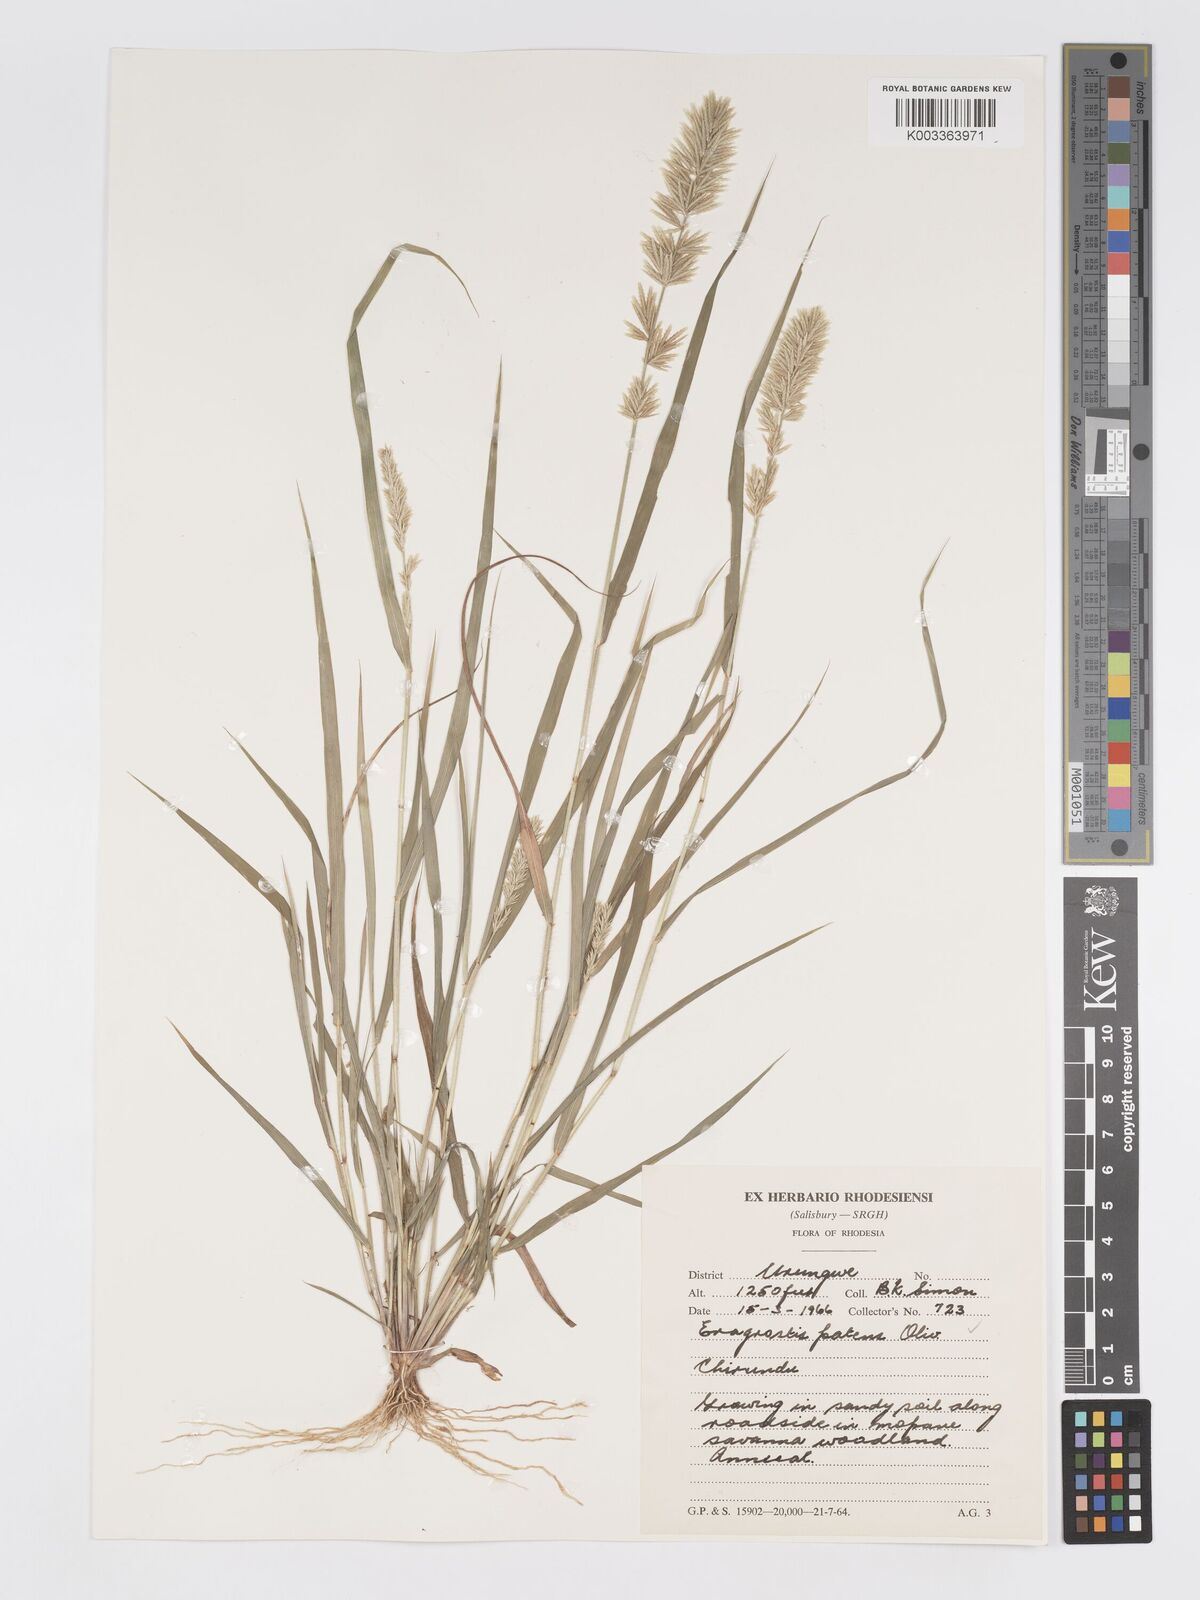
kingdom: Plantae
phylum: Tracheophyta
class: Liliopsida
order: Poales
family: Poaceae
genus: Eragrostis
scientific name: Eragrostis patens
